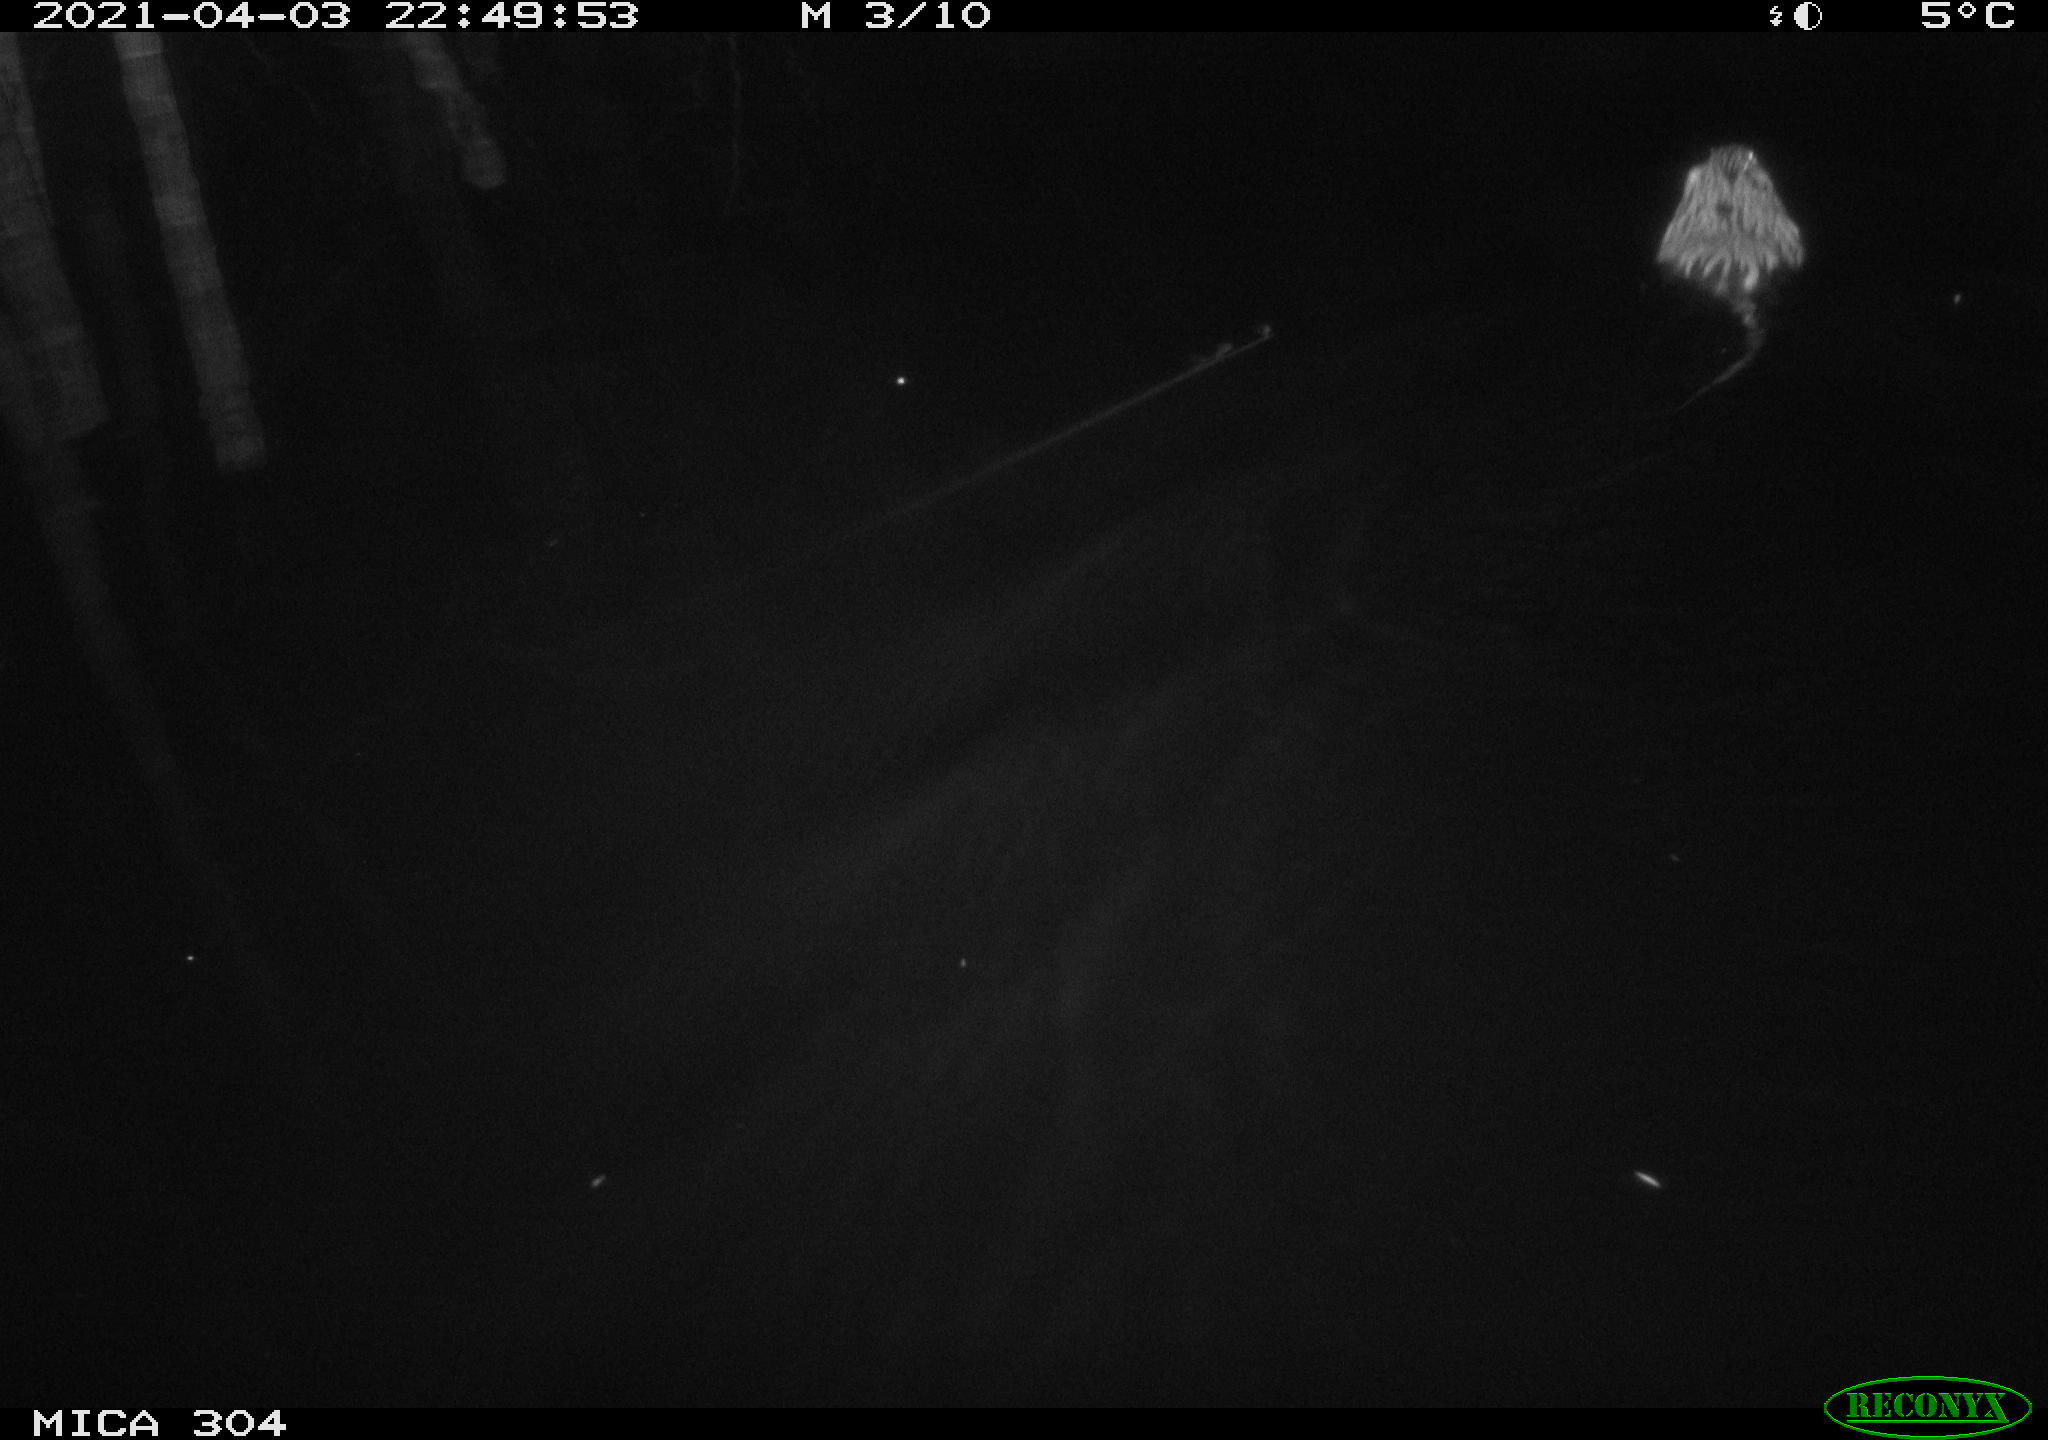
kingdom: Animalia
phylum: Chordata
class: Mammalia
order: Rodentia
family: Cricetidae
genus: Ondatra
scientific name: Ondatra zibethicus
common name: Muskrat
